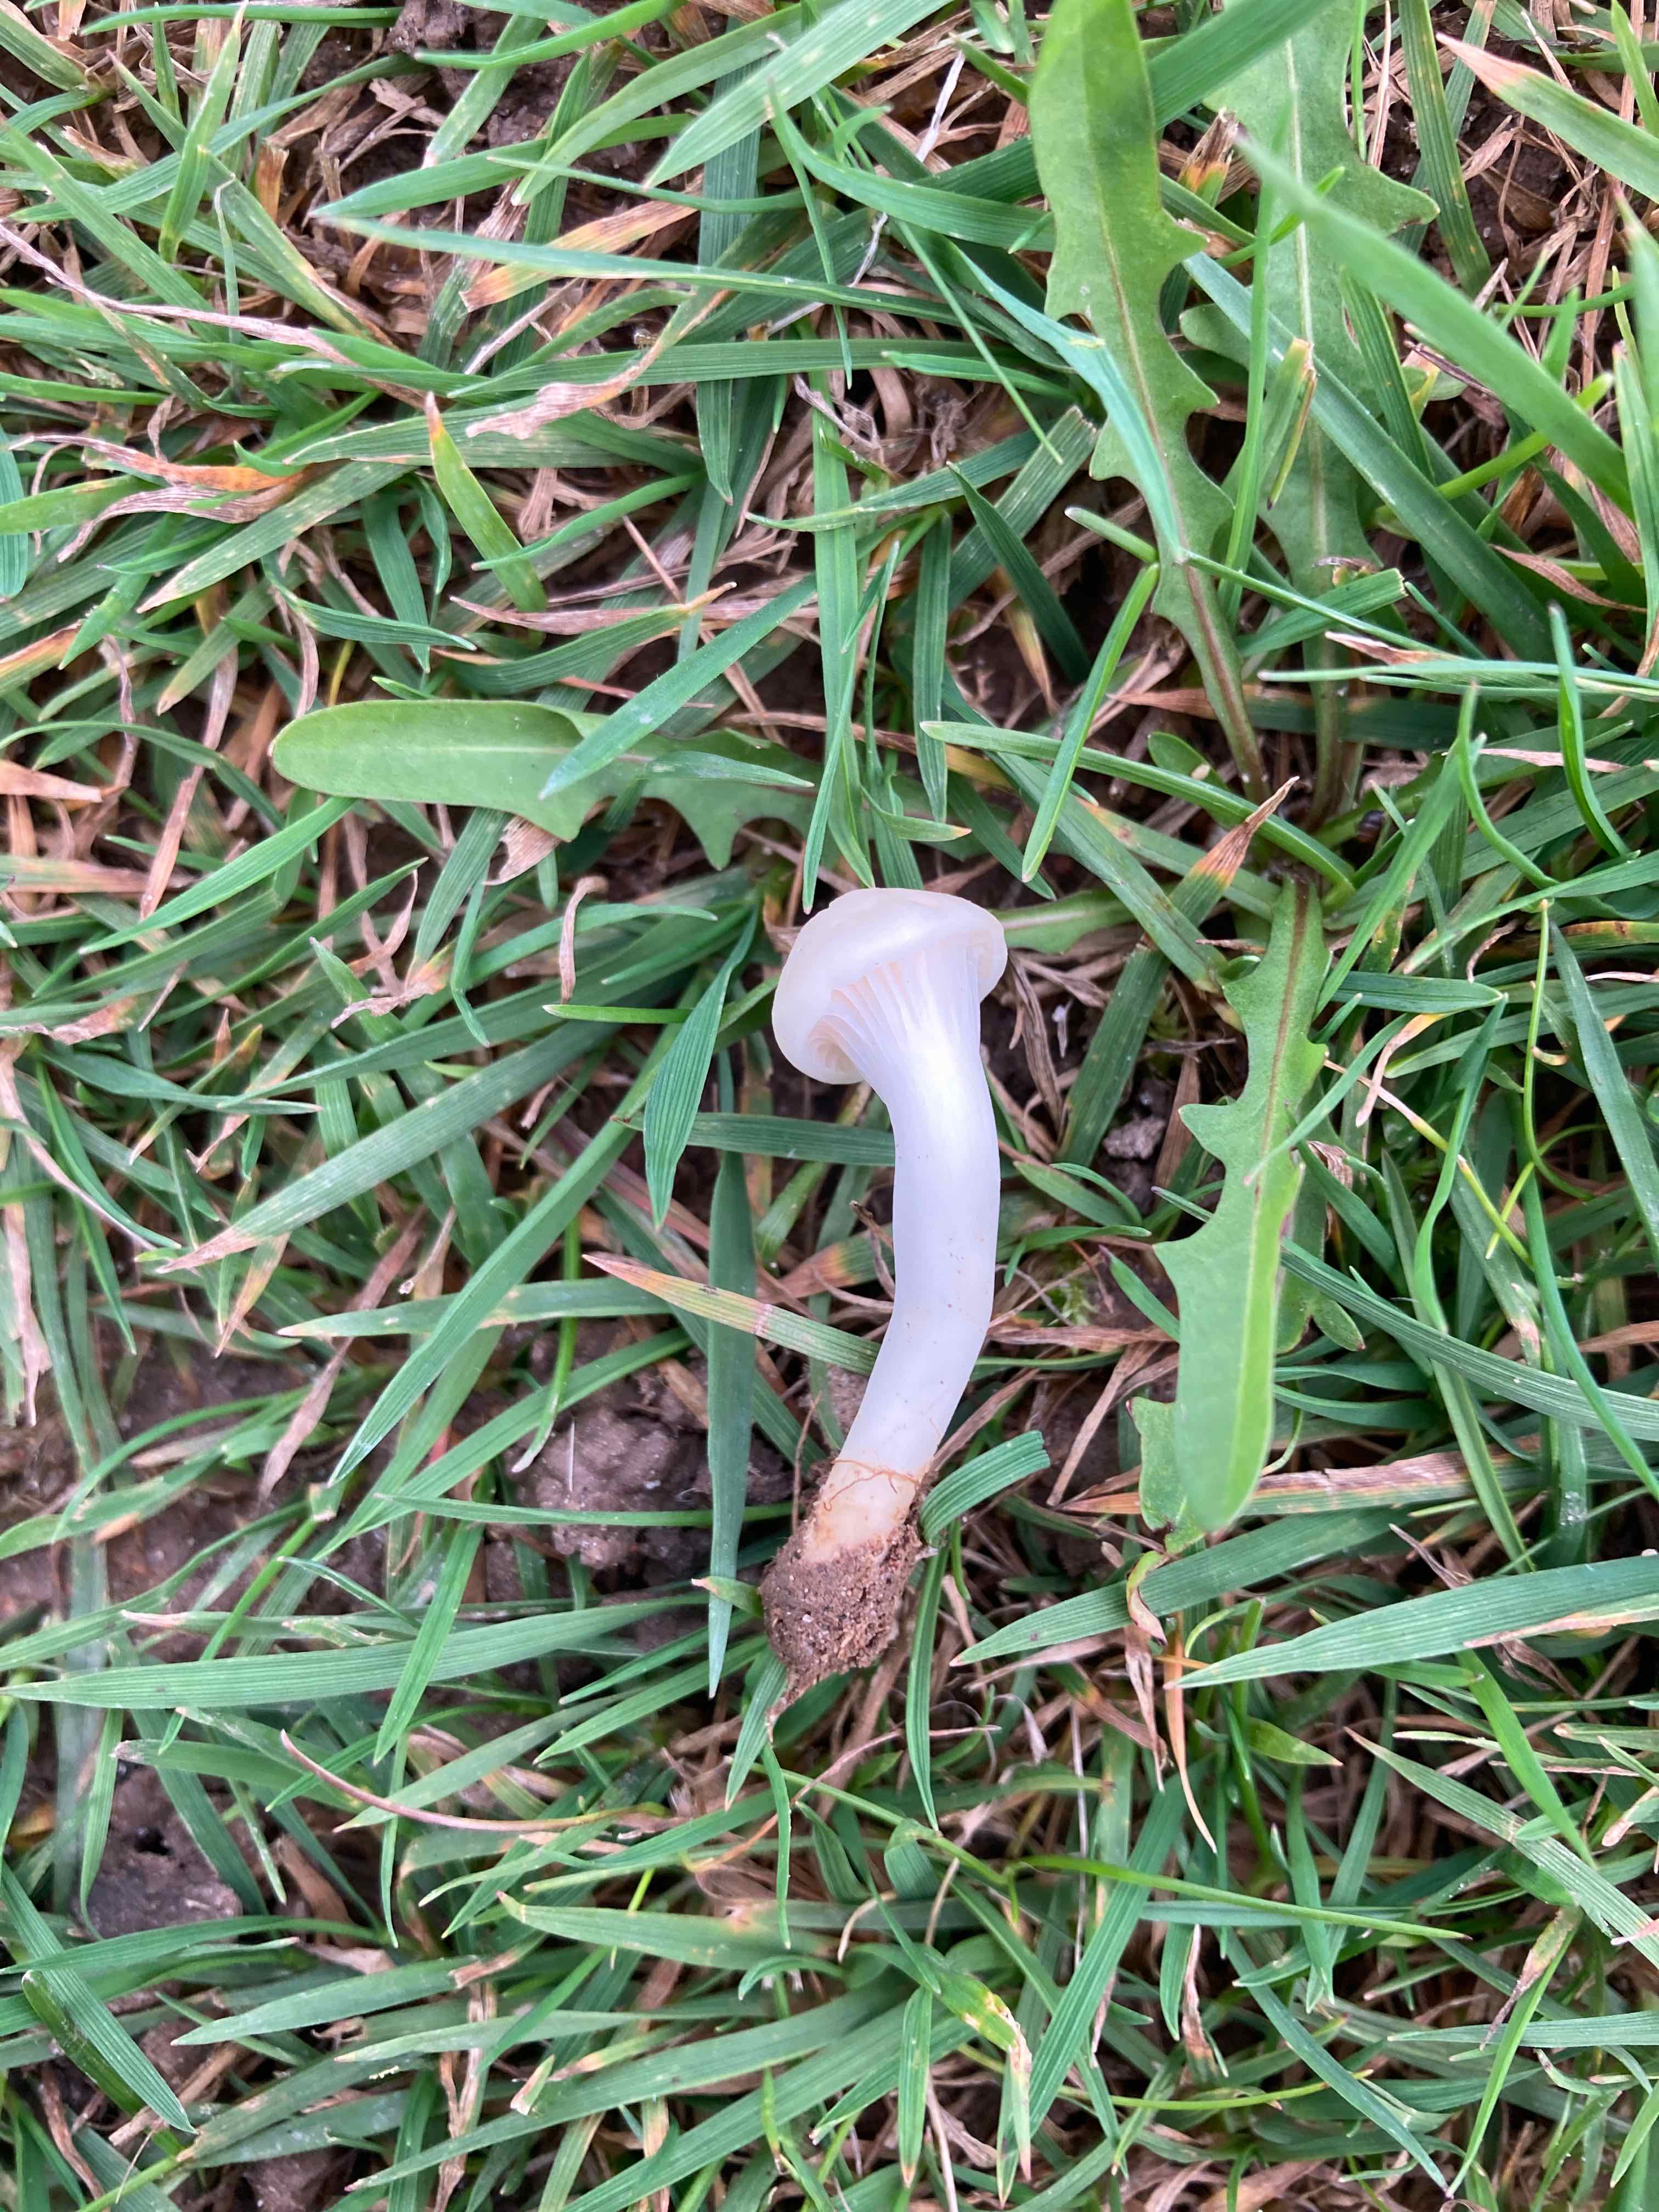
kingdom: Fungi
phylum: Basidiomycota
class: Agaricomycetes
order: Agaricales
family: Hygrophoraceae
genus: Cuphophyllus
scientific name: Cuphophyllus virgineus
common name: snehvid vokshat
